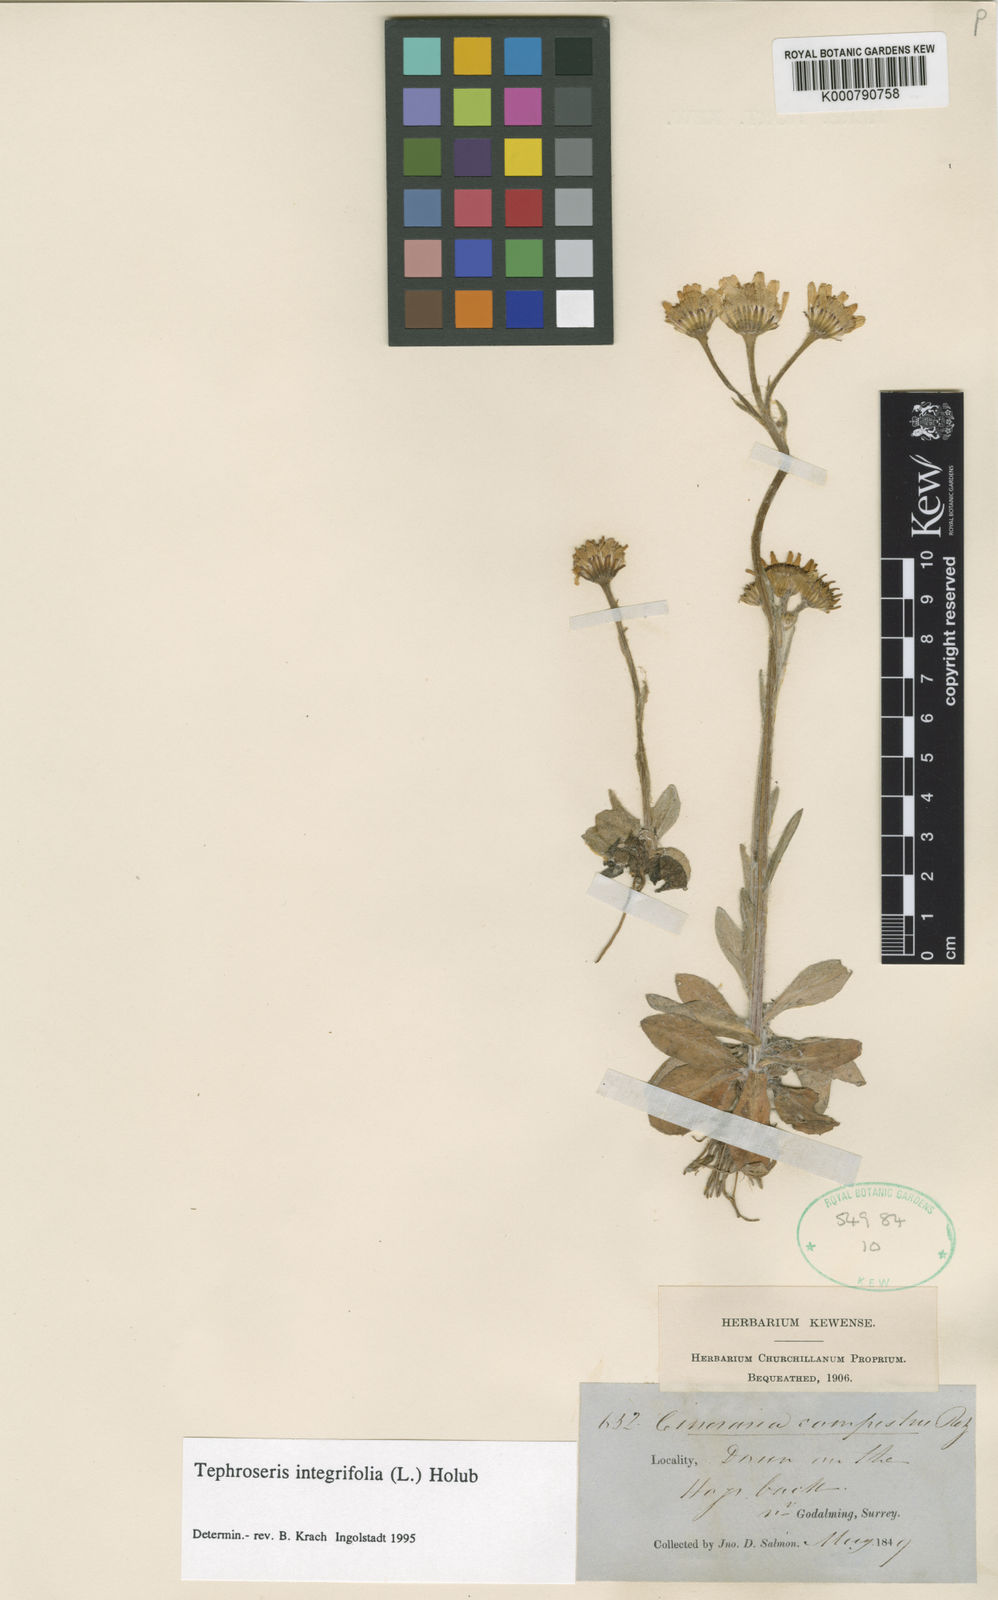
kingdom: Plantae
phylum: Tracheophyta
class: Magnoliopsida
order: Asterales
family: Asteraceae
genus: Tephroseris
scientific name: Tephroseris integrifolia
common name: Field fleawort
